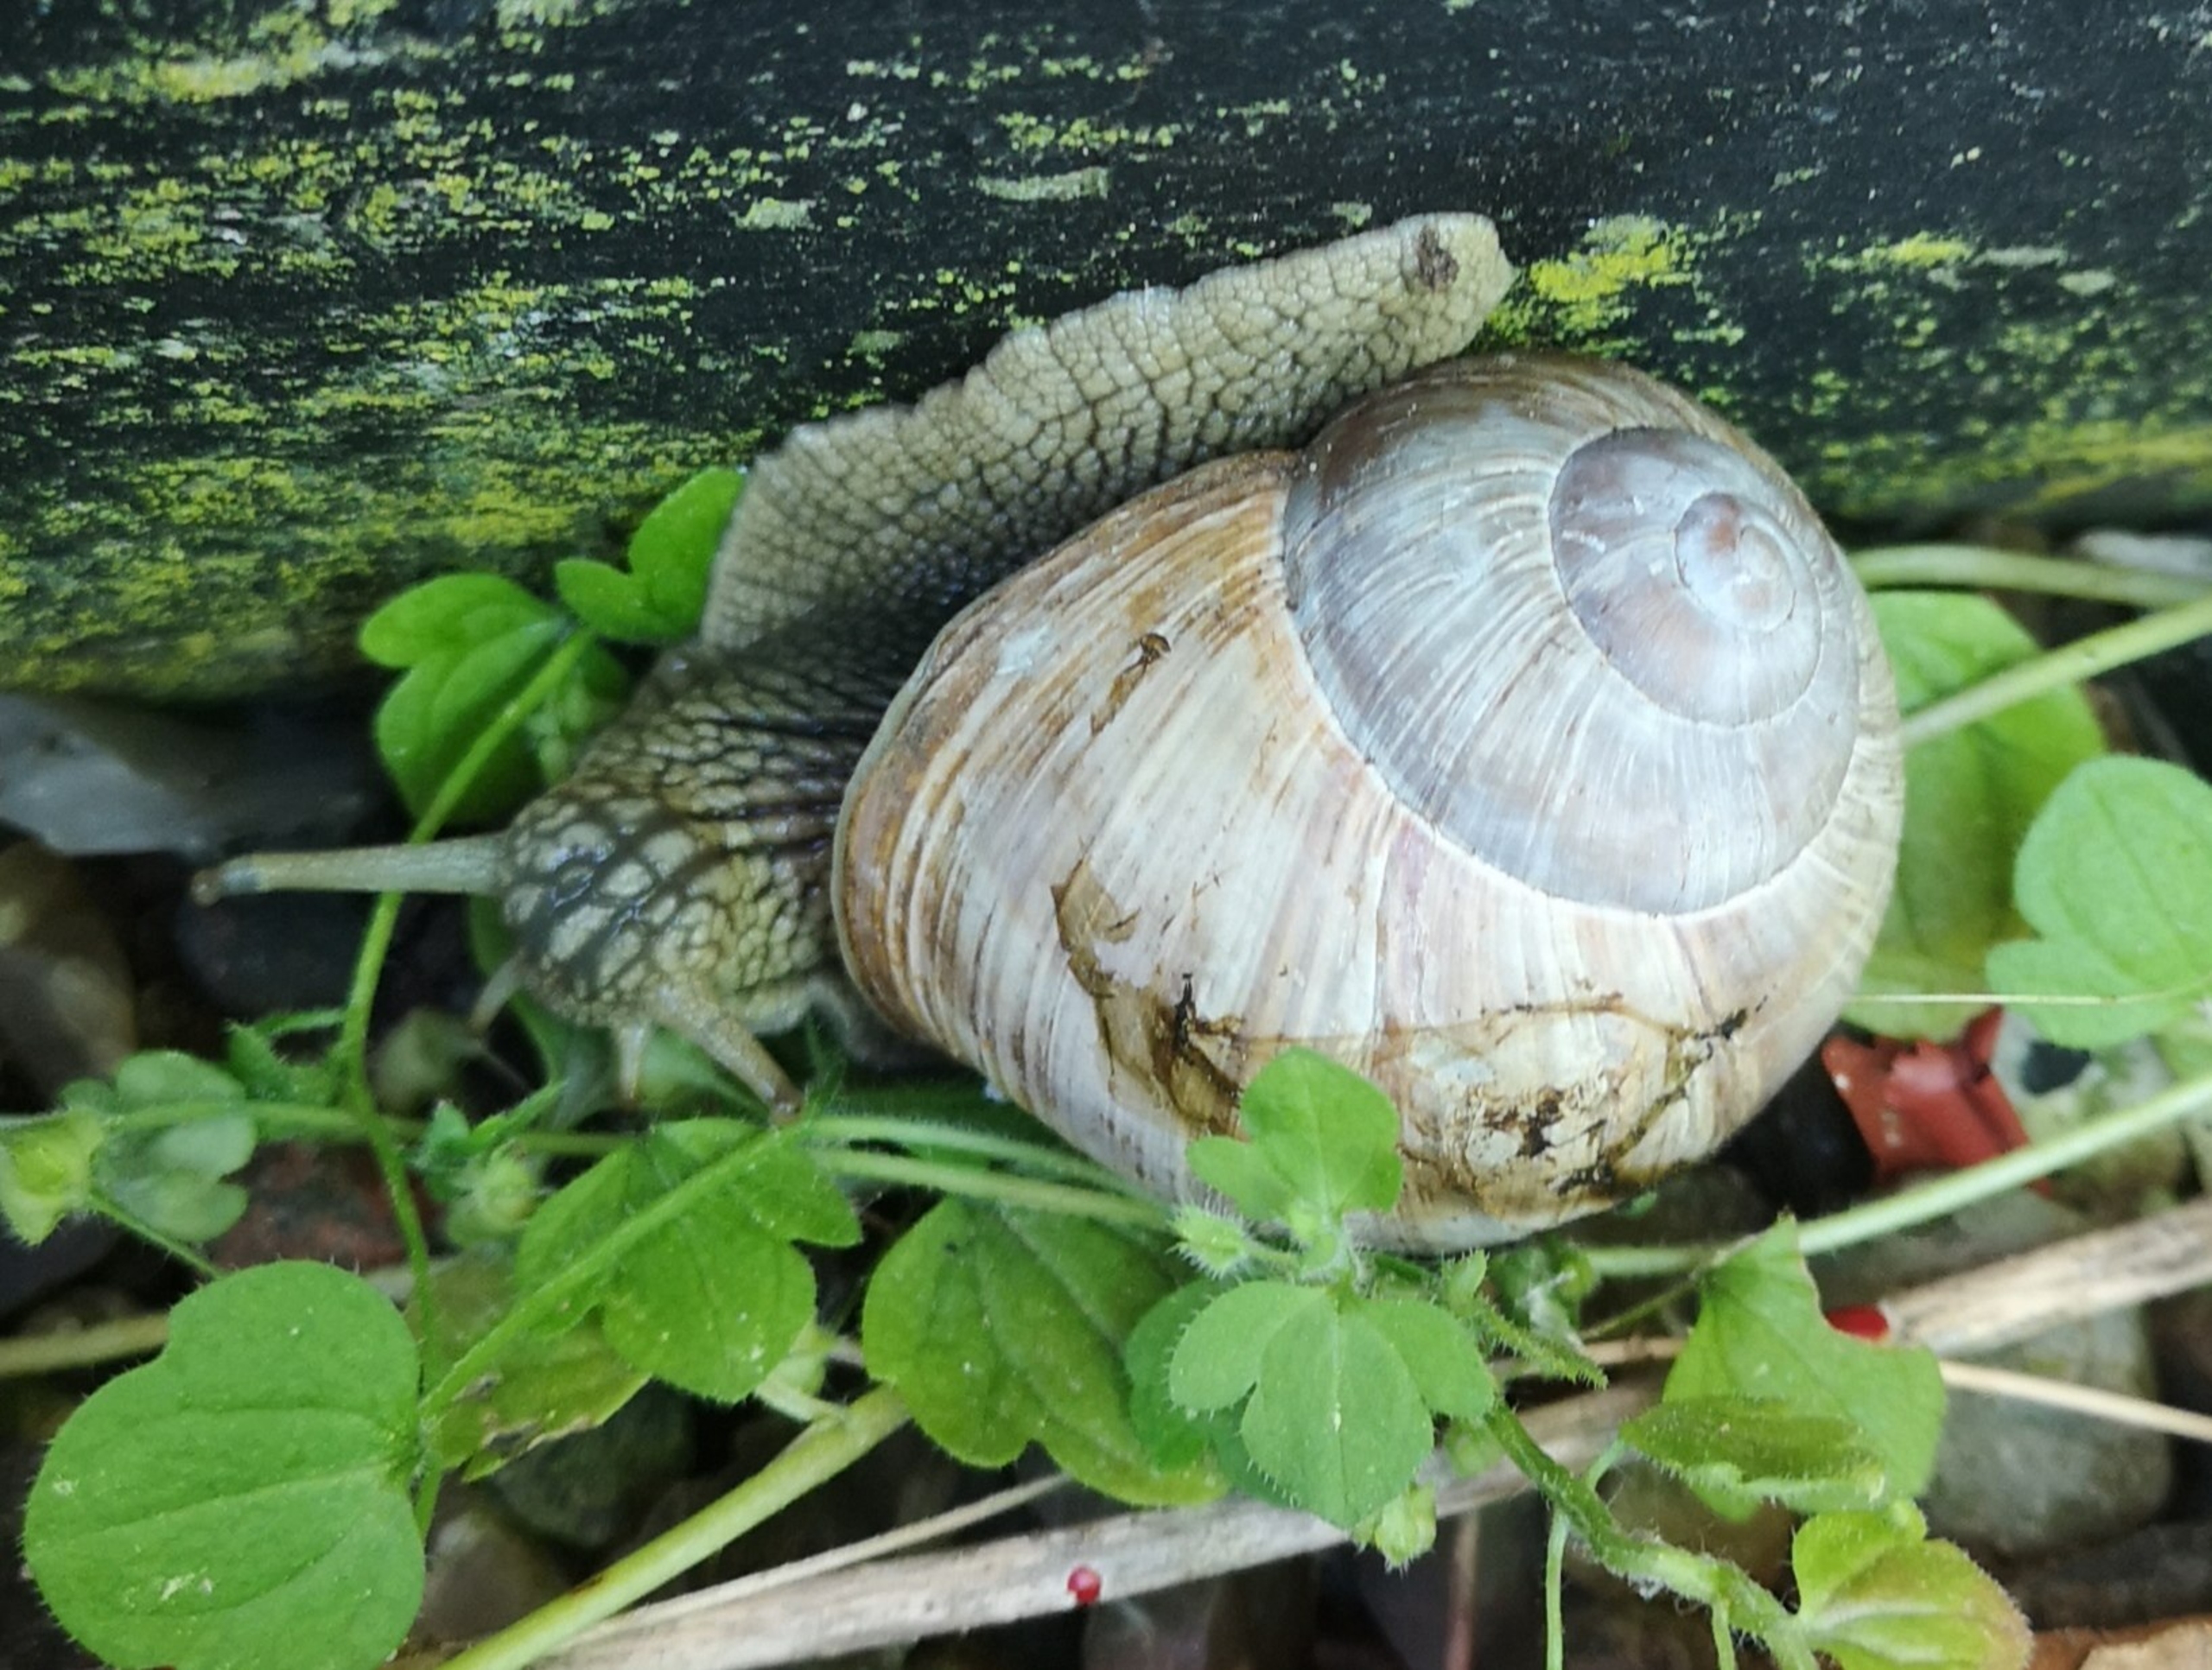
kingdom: Animalia
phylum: Mollusca
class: Gastropoda
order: Stylommatophora
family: Helicidae
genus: Helix
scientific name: Helix pomatia
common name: Vinbjergsnegl
